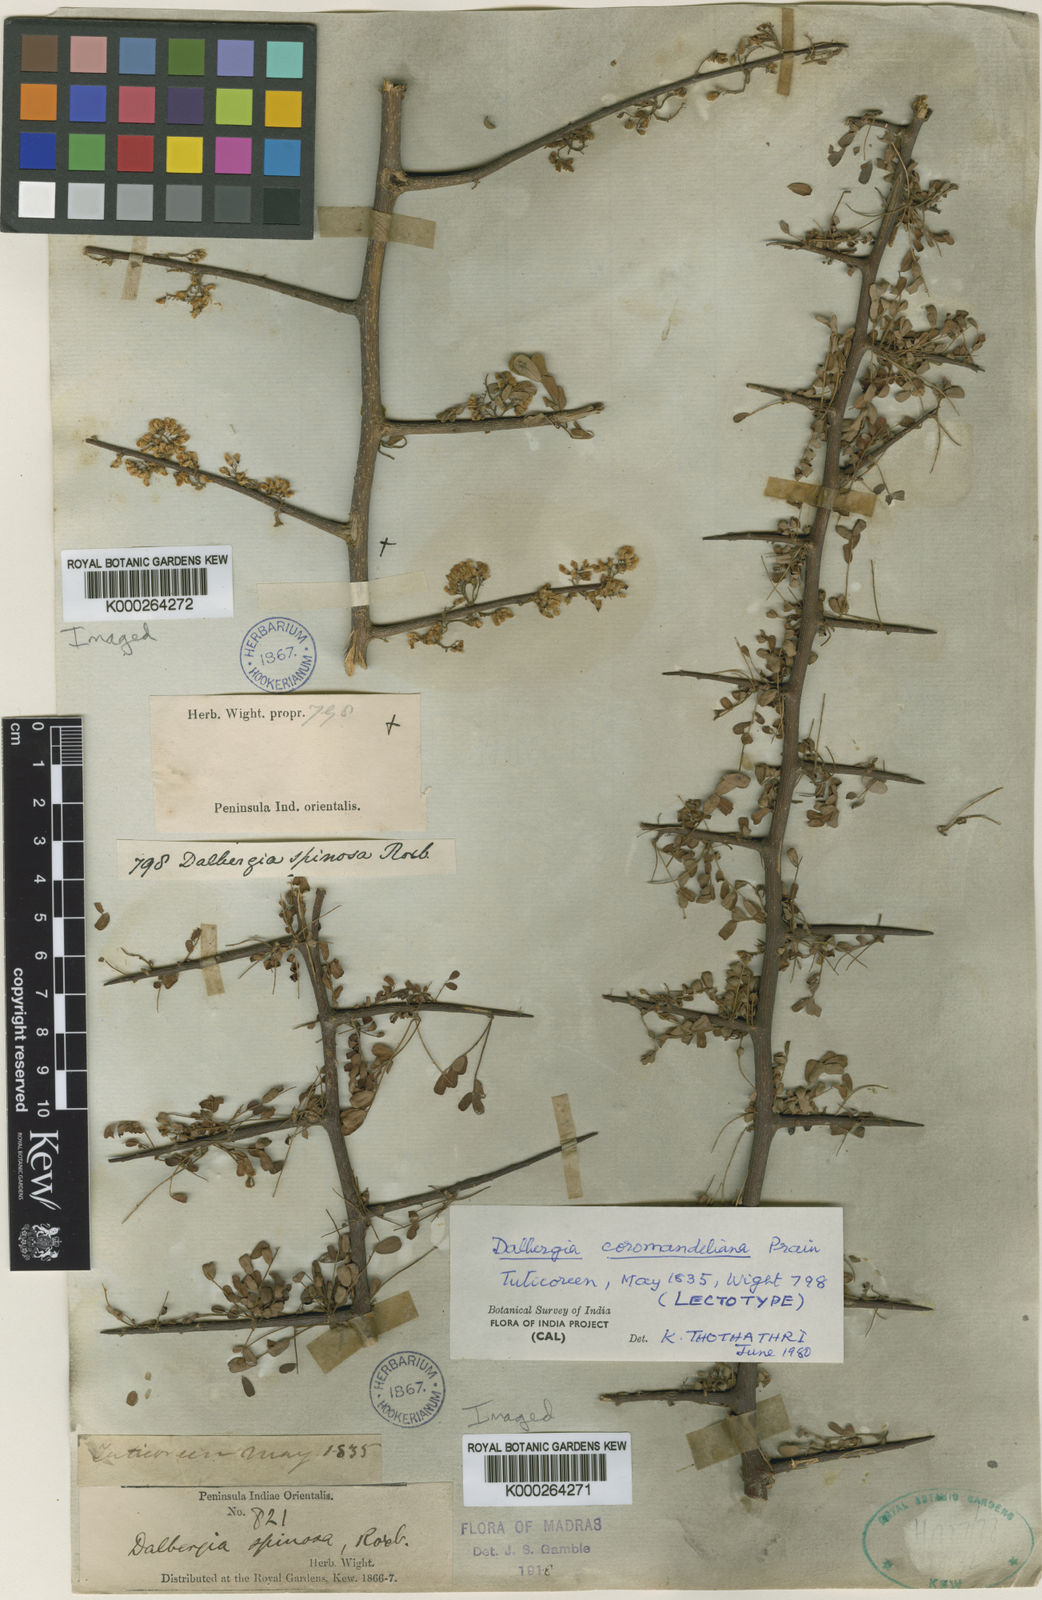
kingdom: Plantae
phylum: Tracheophyta
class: Magnoliopsida
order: Fabales
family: Fabaceae
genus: Dalbergia
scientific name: Dalbergia coromandeliana
